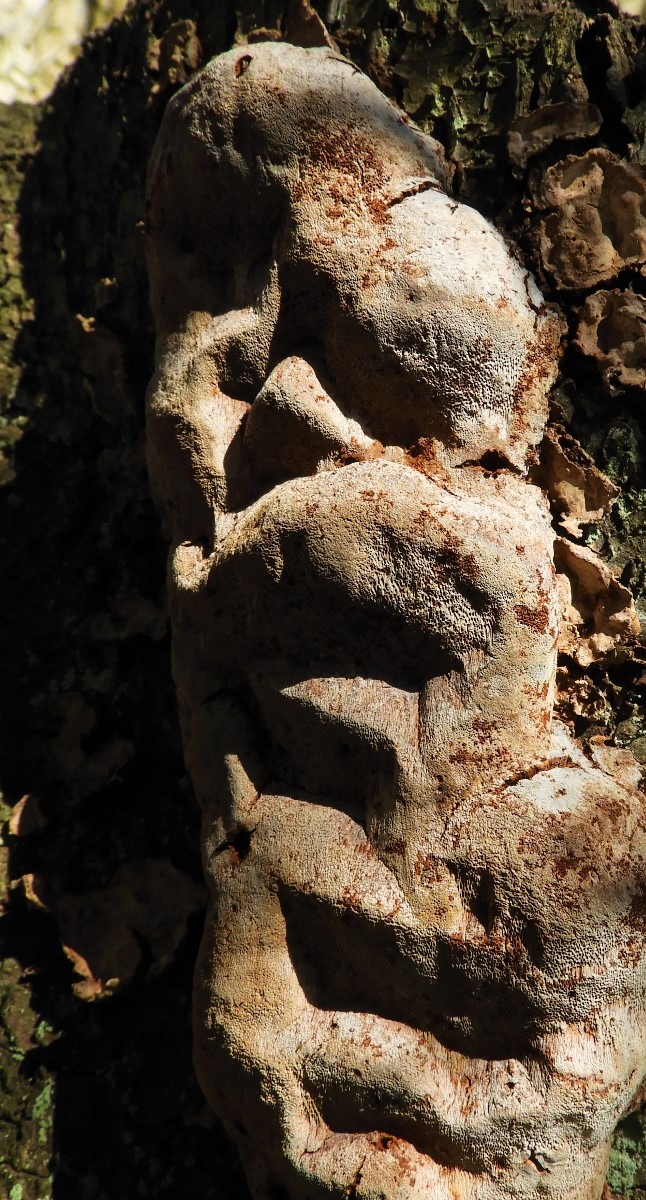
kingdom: Fungi
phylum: Basidiomycota
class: Agaricomycetes
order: Hymenochaetales
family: Hymenochaetaceae
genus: Phellinus
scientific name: Phellinus pomaceus
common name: blomme-ildporesvamp
